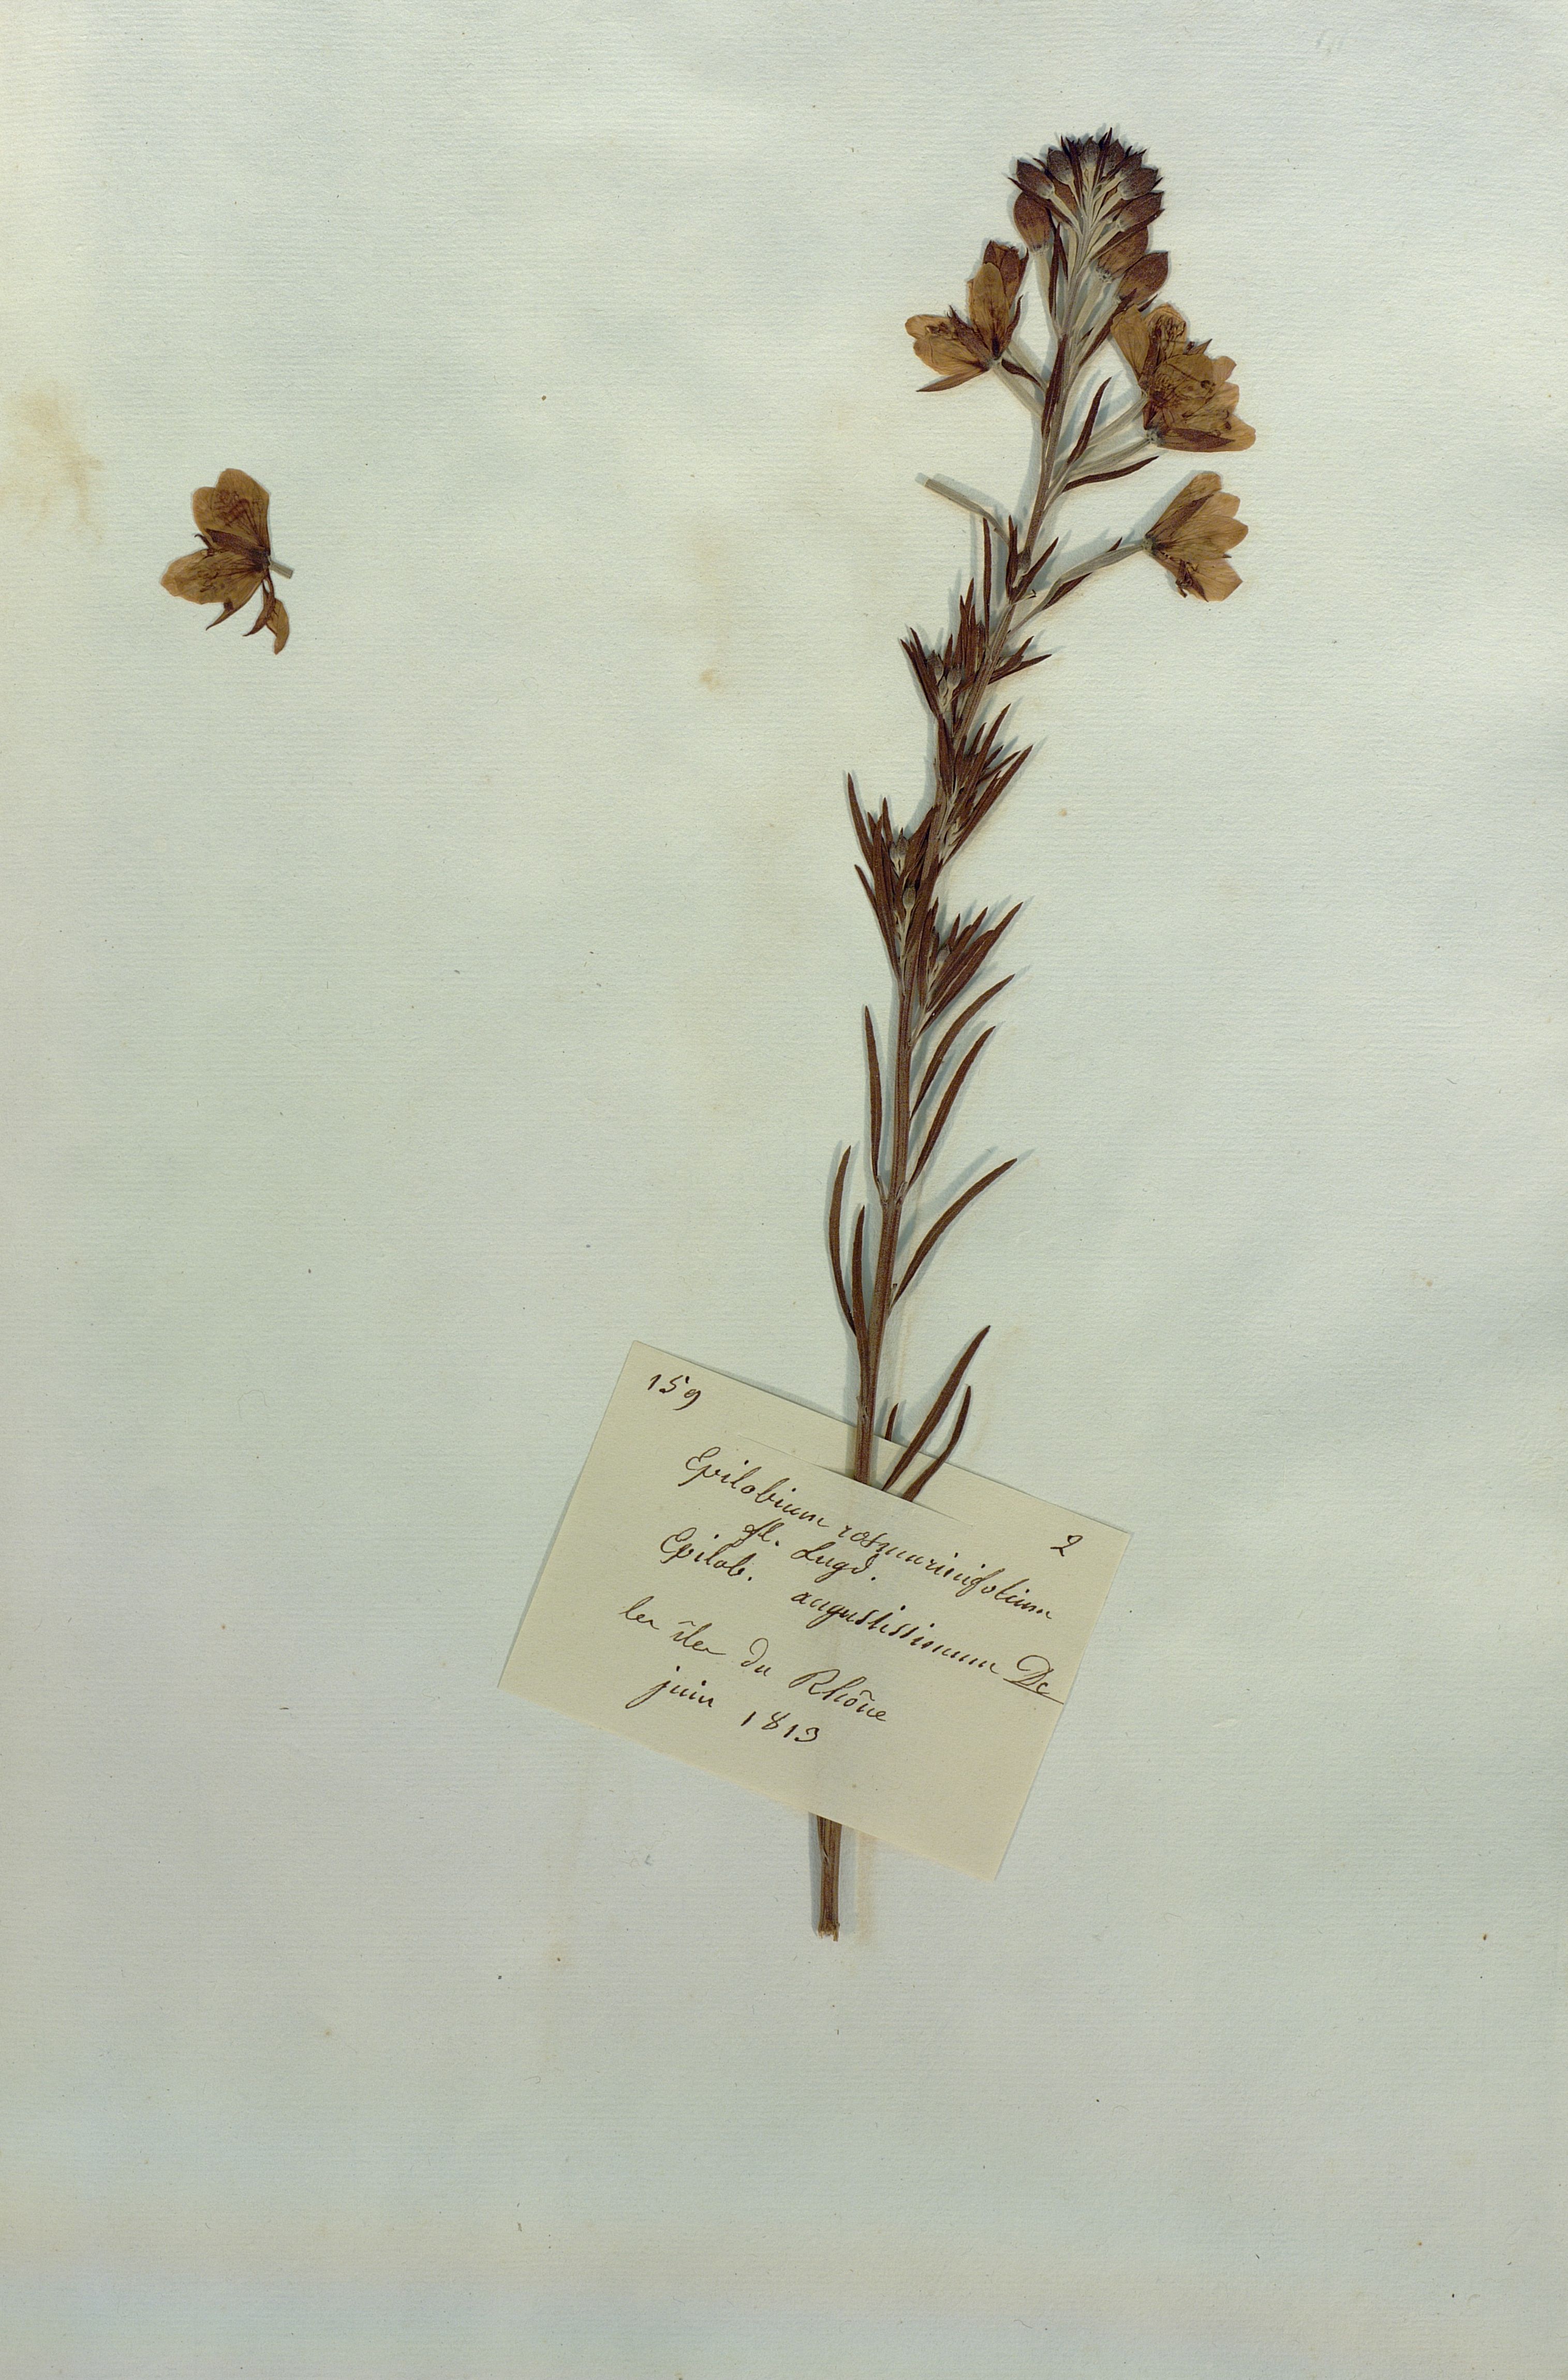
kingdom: Plantae
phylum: Tracheophyta
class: Magnoliopsida
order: Myrtales
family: Onagraceae
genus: Epilobium
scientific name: Epilobium leptophyllum
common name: Bog willowherb
